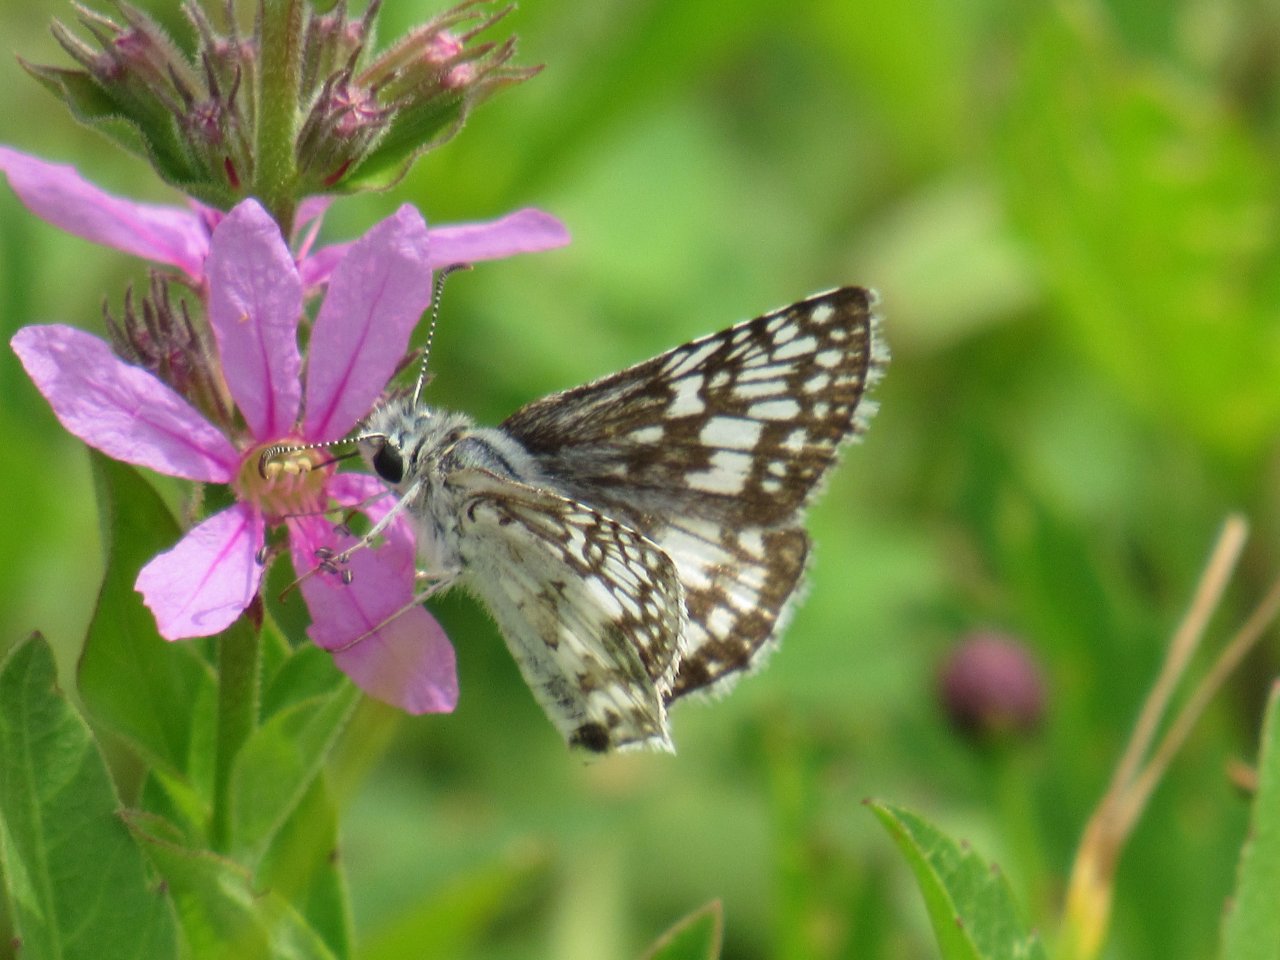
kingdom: Animalia
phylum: Arthropoda
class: Insecta
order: Lepidoptera
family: Hesperiidae
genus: Pyrgus
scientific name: Pyrgus communis
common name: Common Checkered-Skipper
